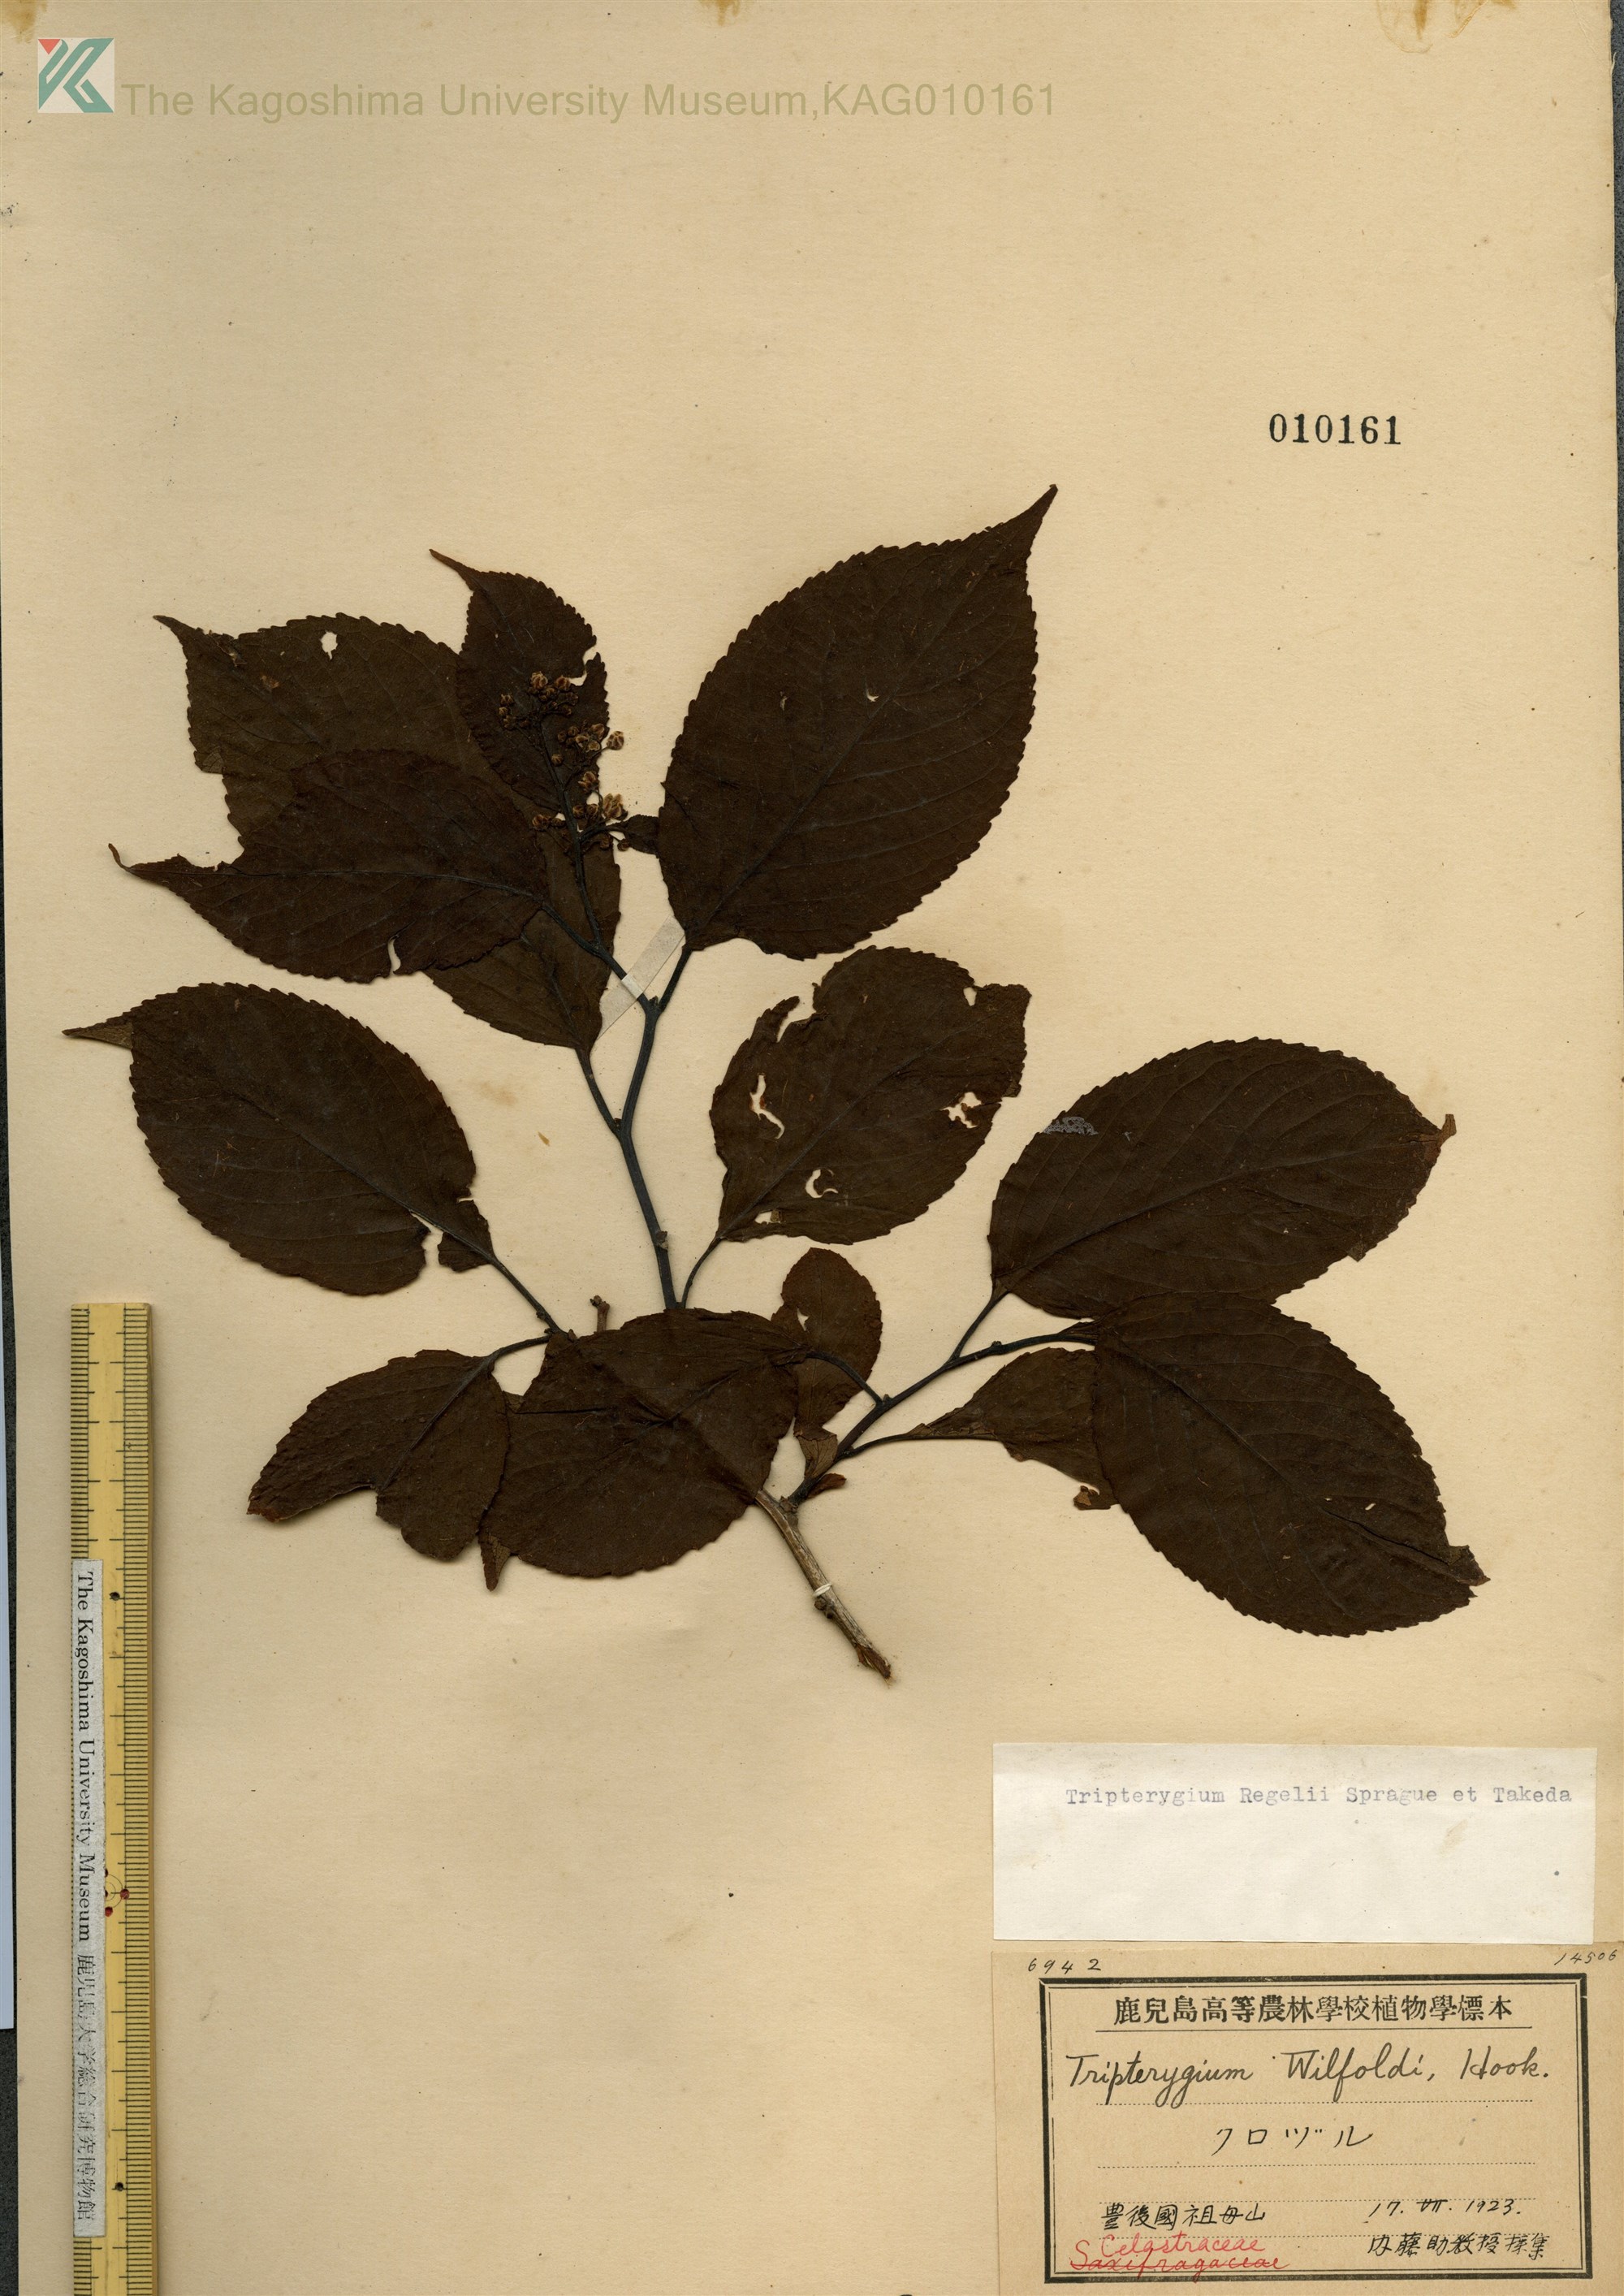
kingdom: Plantae
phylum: Tracheophyta
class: Magnoliopsida
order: Celastrales
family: Celastraceae
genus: Tripterygium
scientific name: Tripterygium wilfordii
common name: クロヅル
